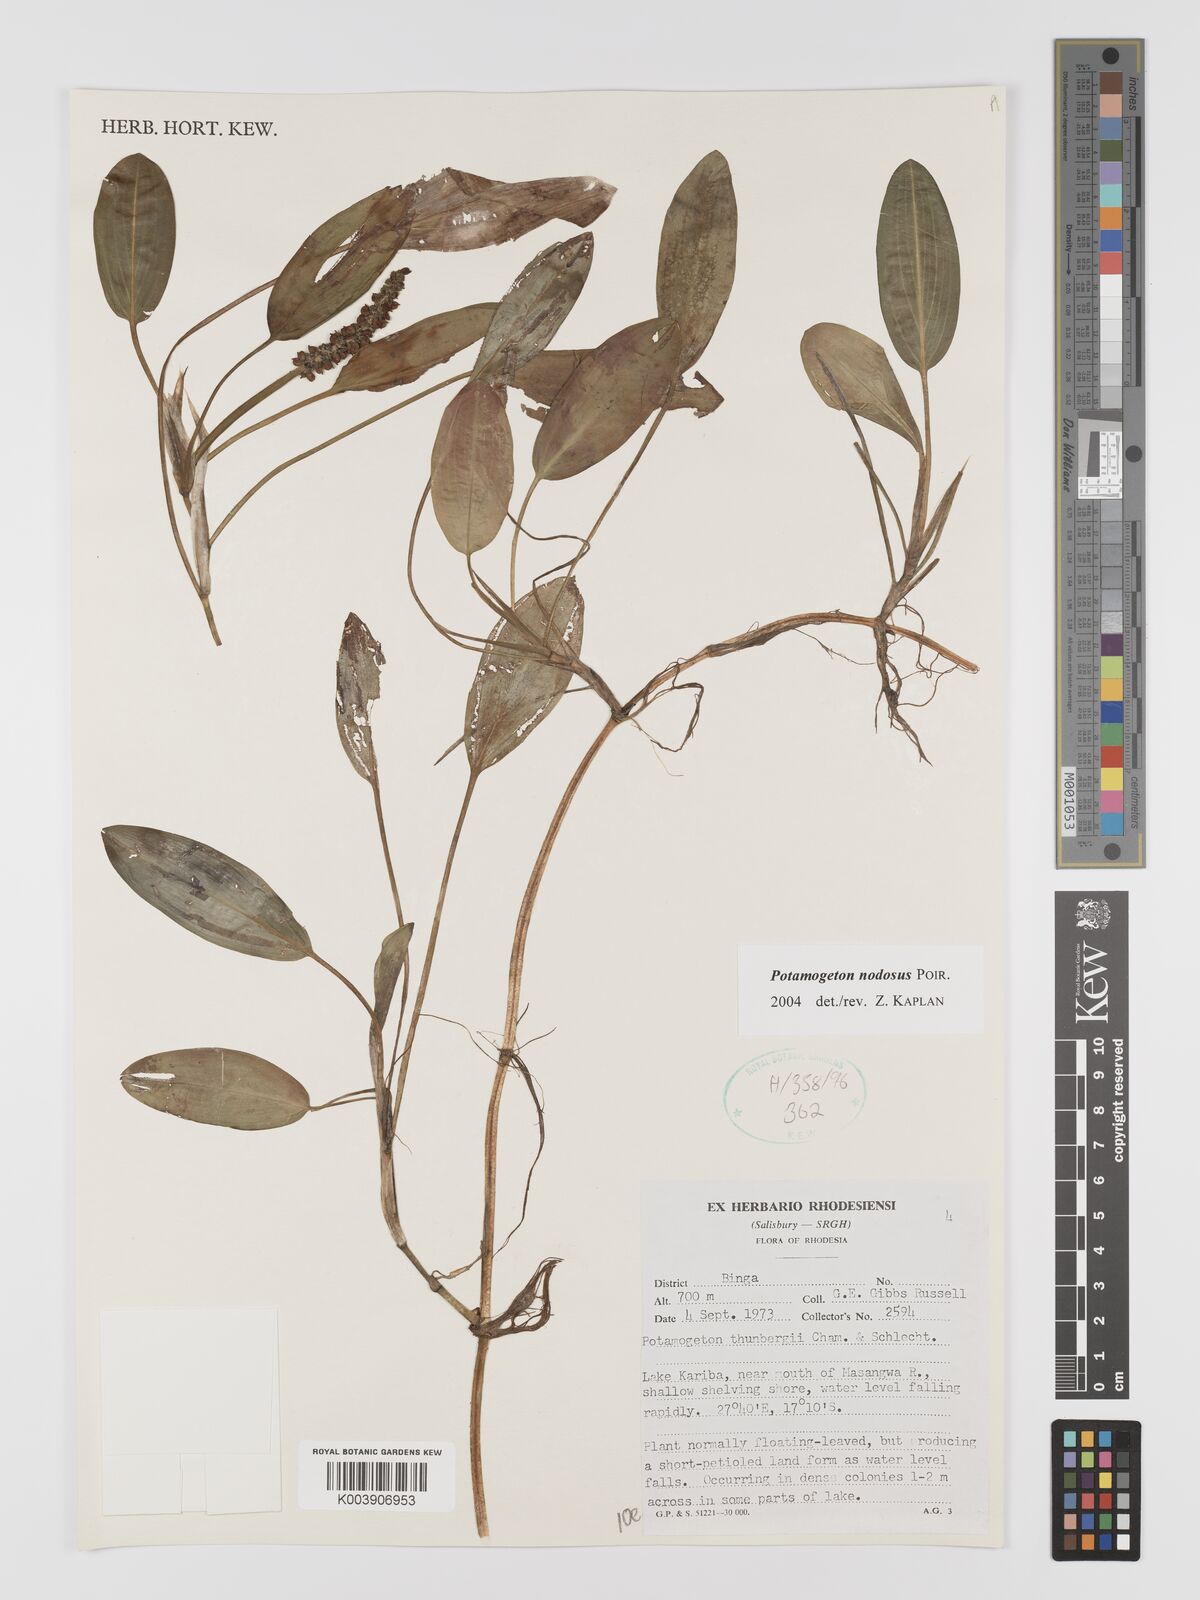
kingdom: Plantae
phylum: Tracheophyta
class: Liliopsida
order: Alismatales
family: Potamogetonaceae
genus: Potamogeton
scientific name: Potamogeton nodosus
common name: Loddon pondweed
